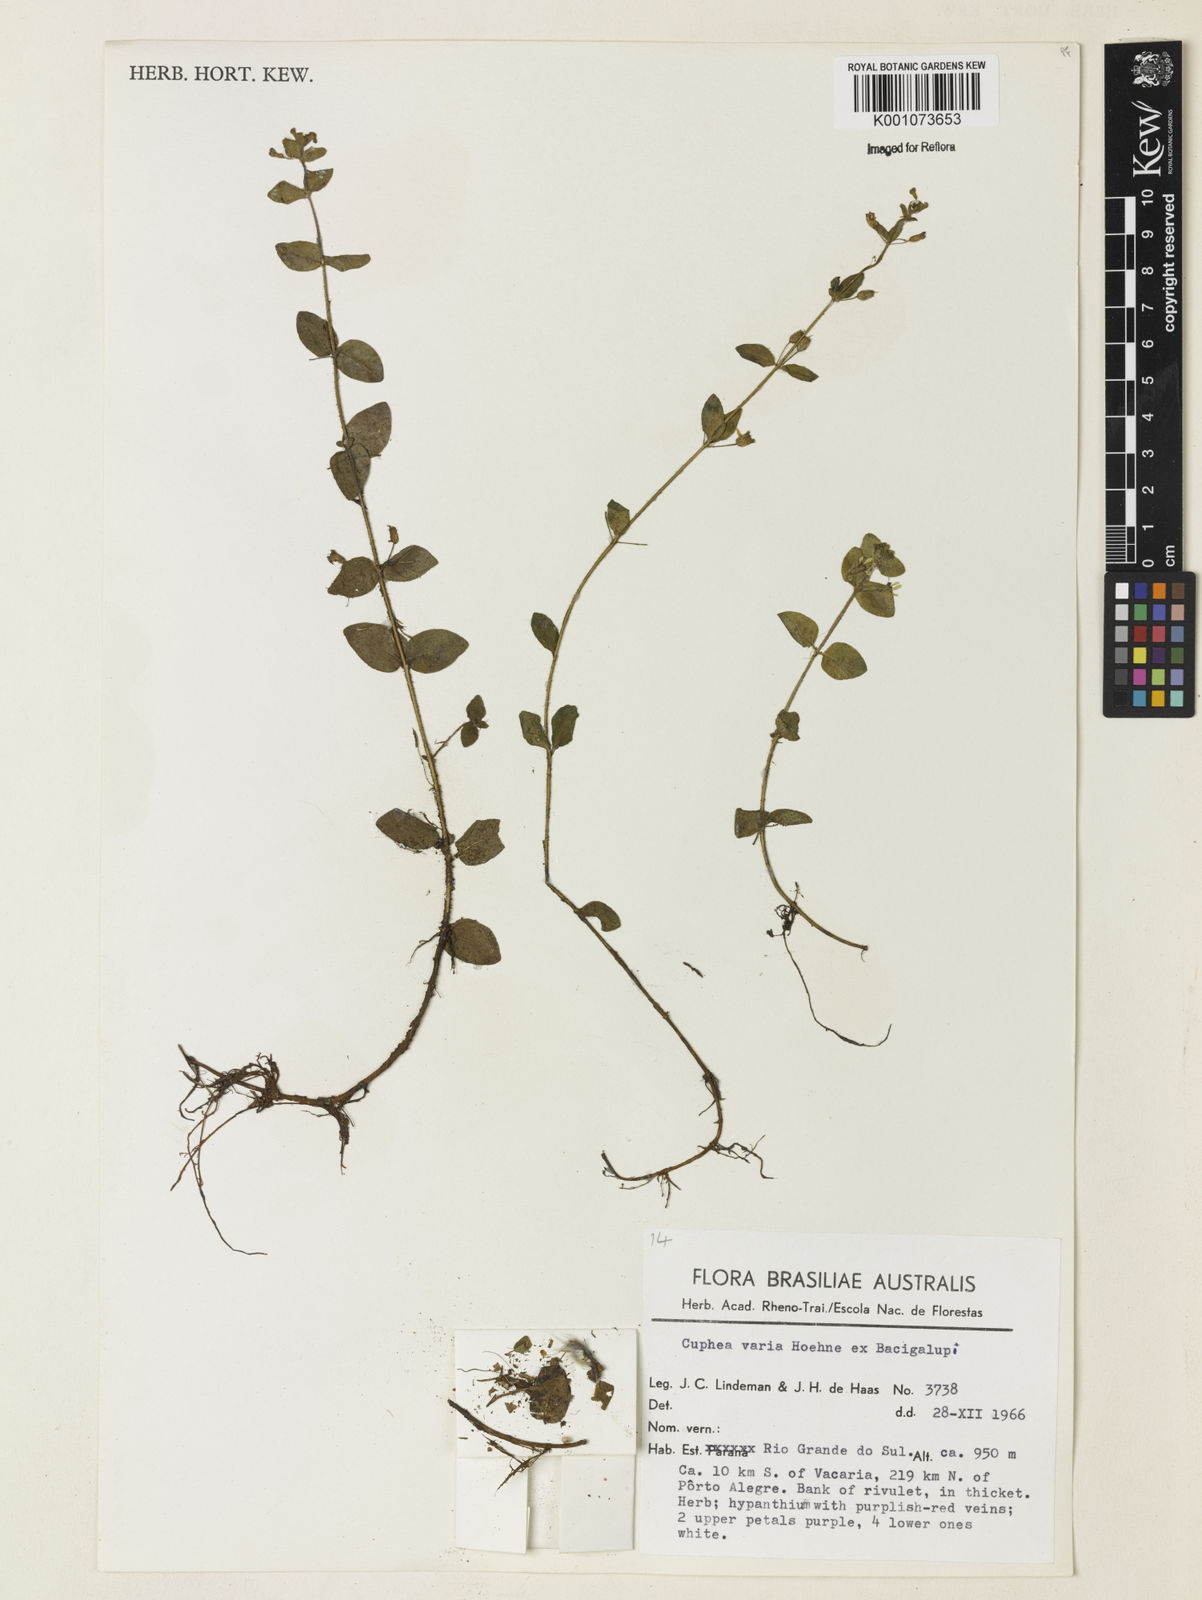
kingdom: Plantae
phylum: Tracheophyta
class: Magnoliopsida
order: Myrtales
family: Lythraceae
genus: Cuphea
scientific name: Cuphea varia
